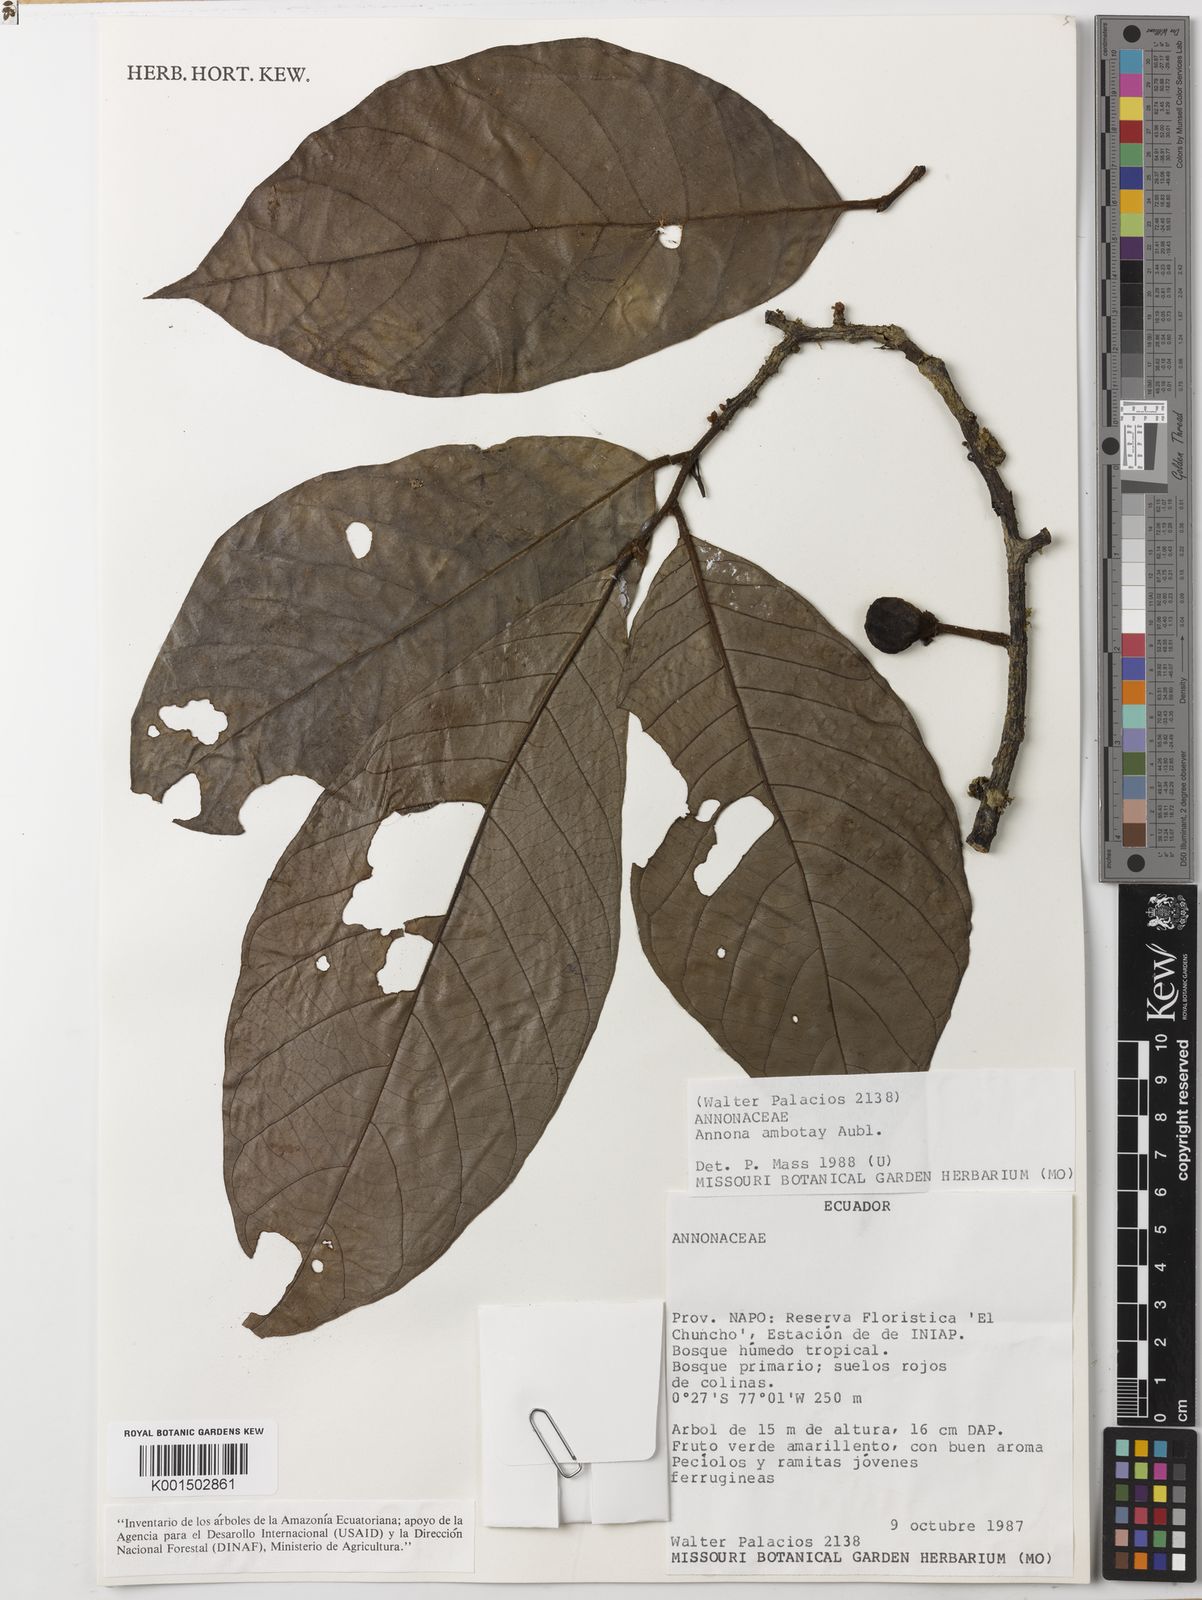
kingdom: Plantae
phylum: Tracheophyta
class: Magnoliopsida
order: Magnoliales
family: Annonaceae
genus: Annona
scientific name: Annona ambotay
